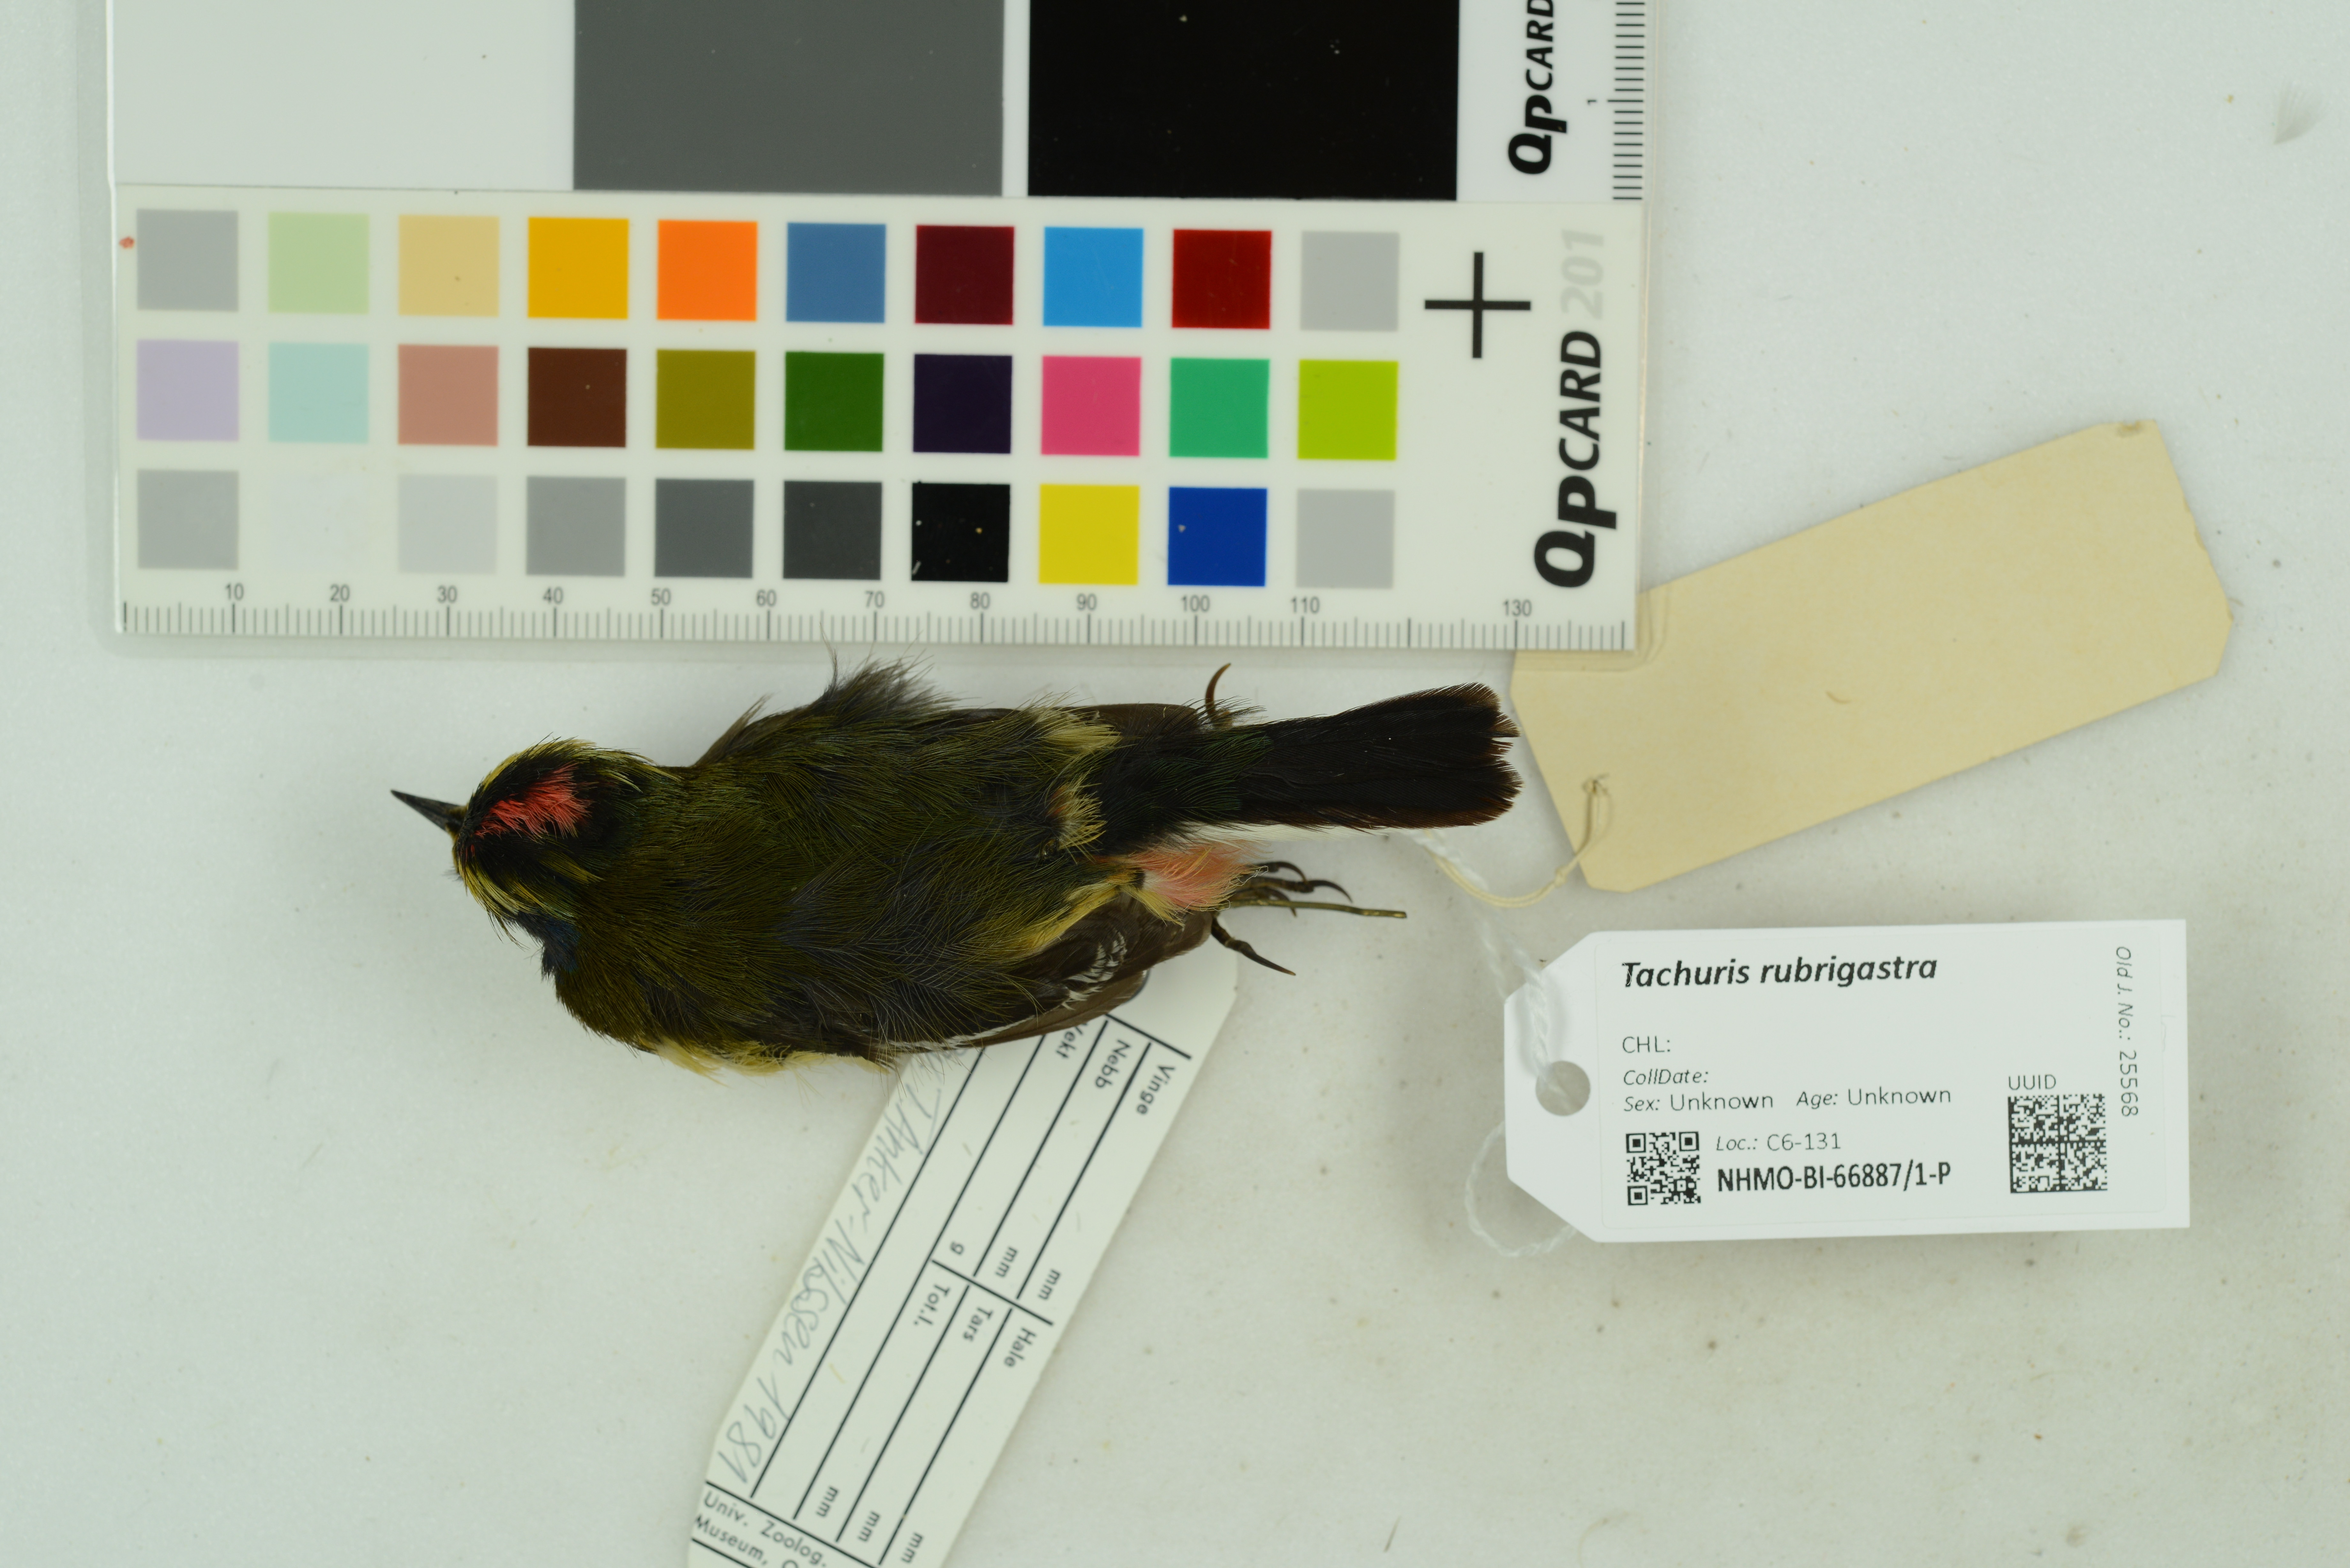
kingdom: Animalia
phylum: Chordata
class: Aves
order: Passeriformes
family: Tyrannidae
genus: Tachuris
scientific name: Tachuris rubrigastra
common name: Many-colored rush tyrant
